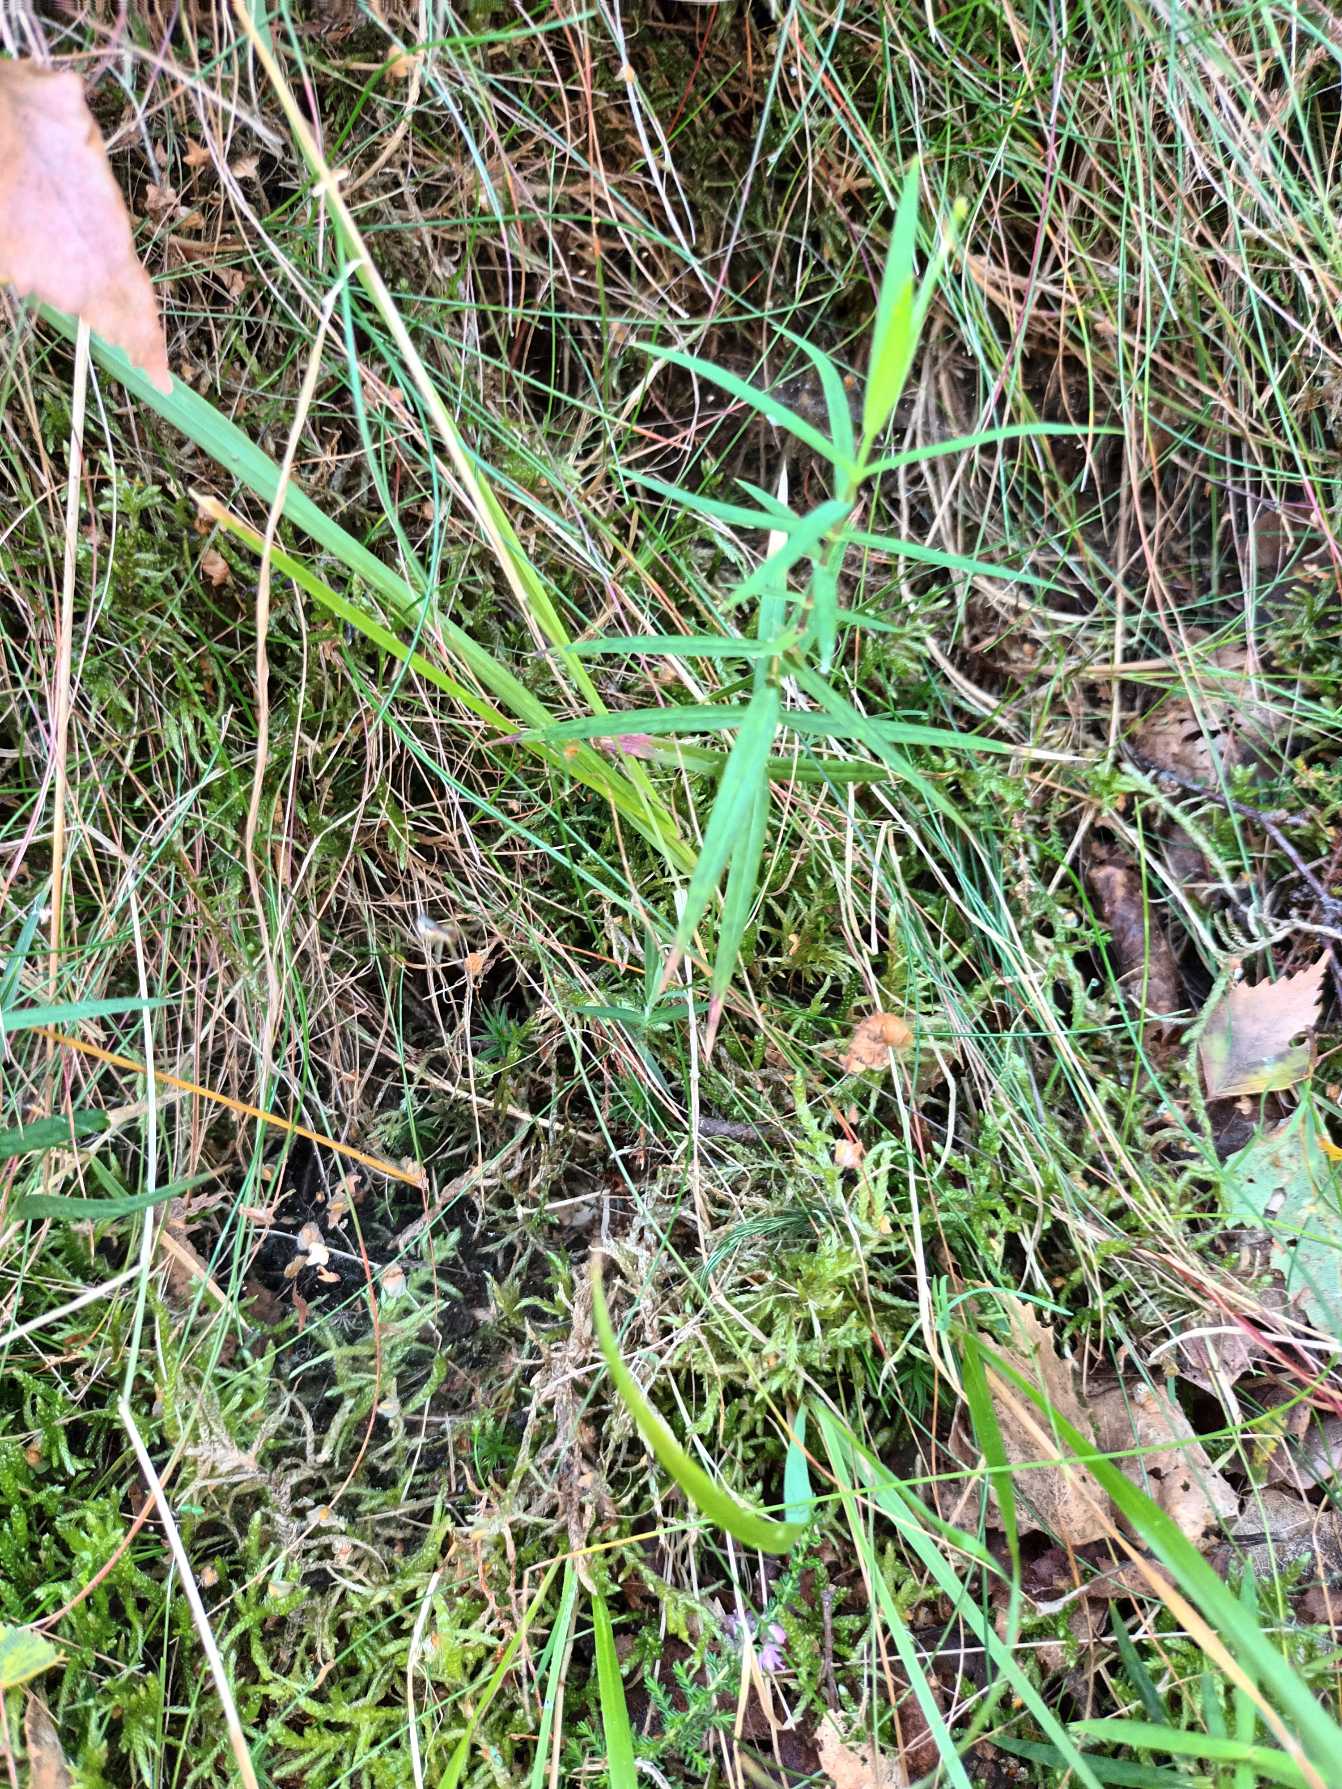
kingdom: Plantae
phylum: Tracheophyta
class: Magnoliopsida
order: Caryophyllales
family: Caryophyllaceae
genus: Rabelera
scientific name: Rabelera holostea
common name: Stor fladstjerne
